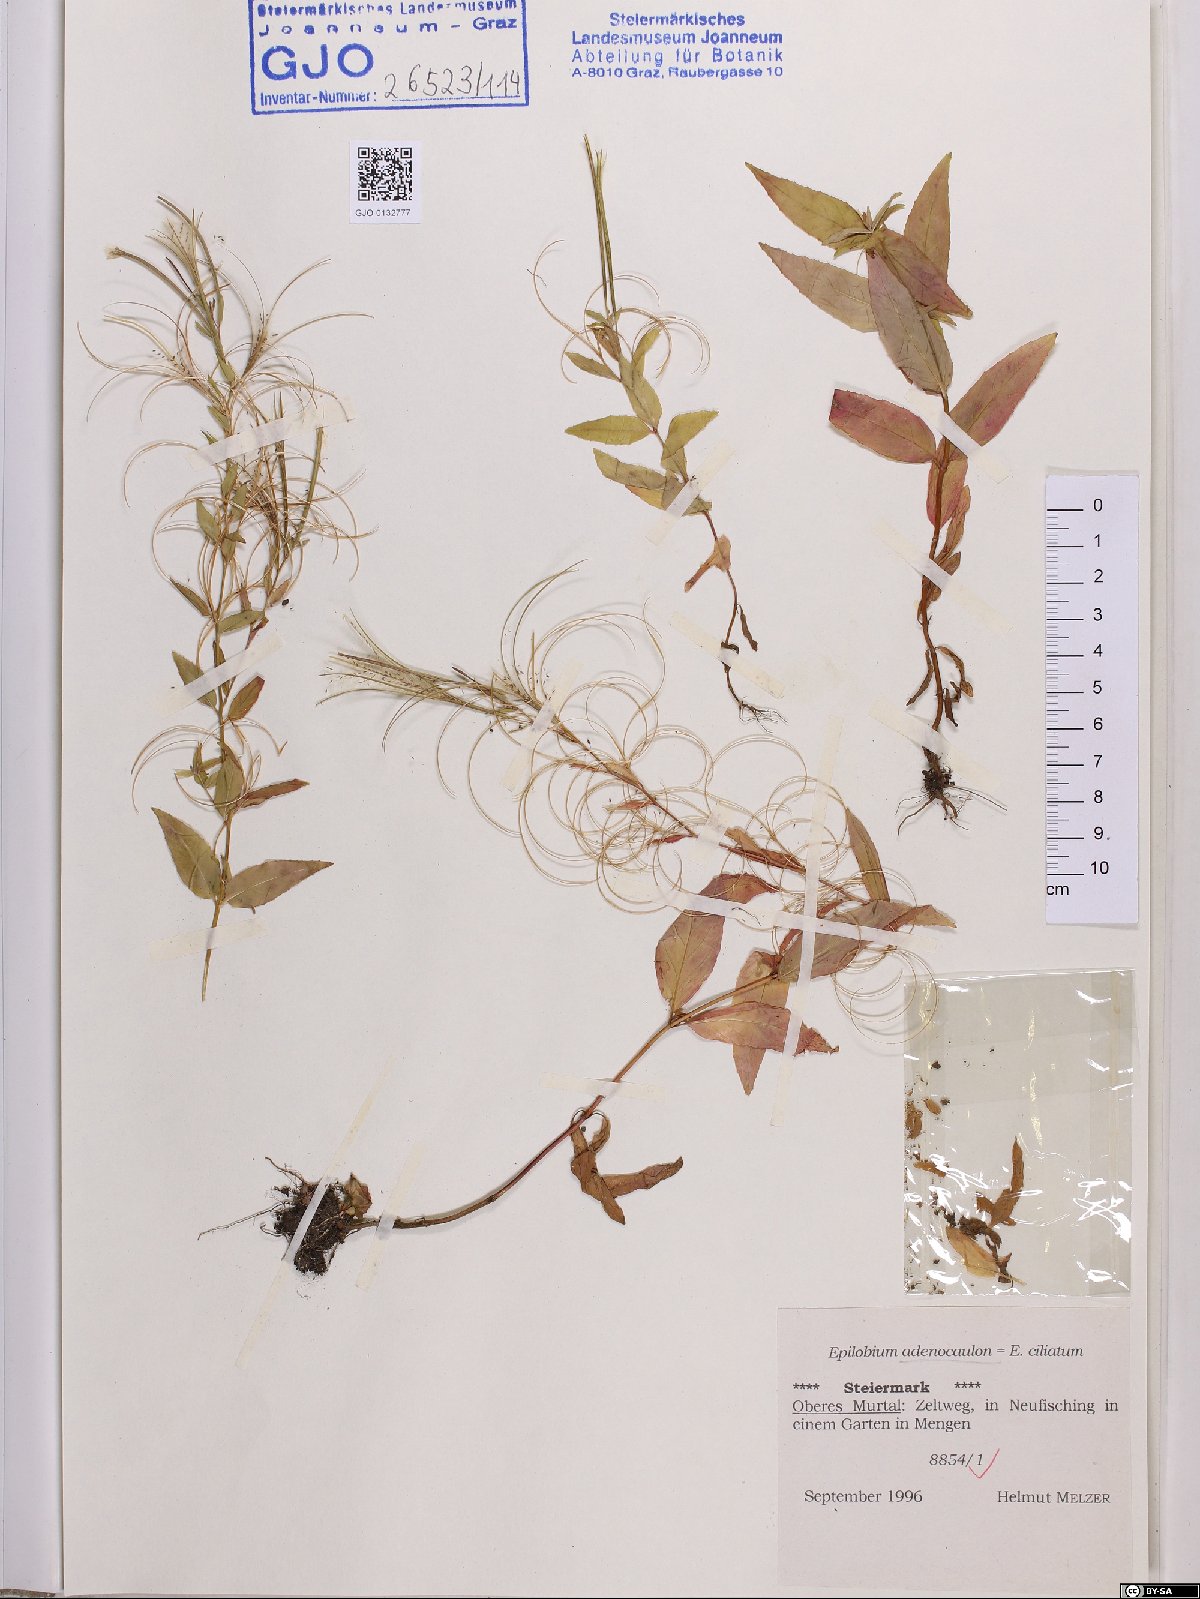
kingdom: Plantae
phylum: Tracheophyta
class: Magnoliopsida
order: Myrtales
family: Onagraceae
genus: Epilobium
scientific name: Epilobium ciliatum
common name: American willowherb
